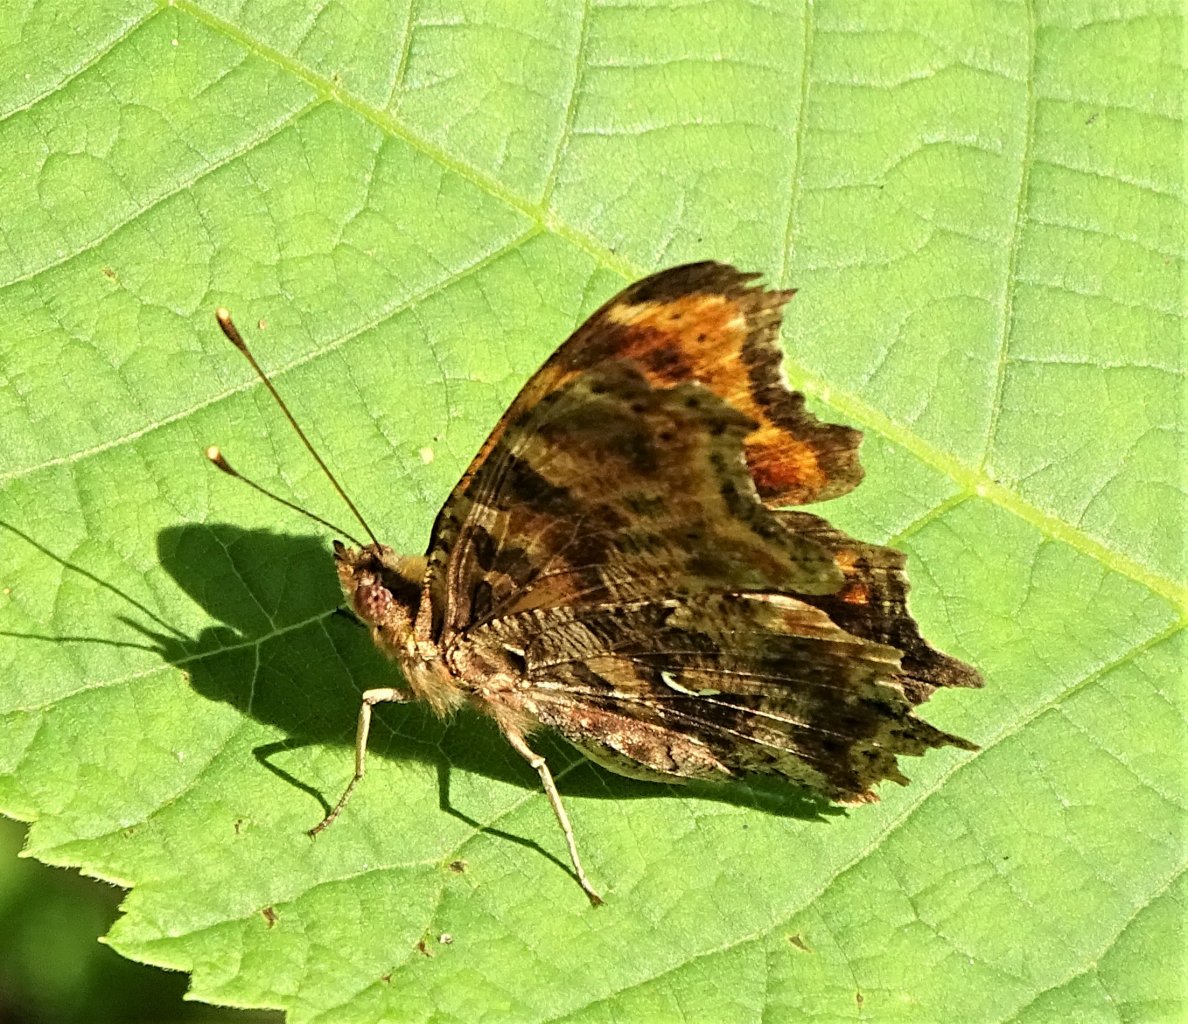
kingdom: Animalia
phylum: Arthropoda
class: Insecta
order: Lepidoptera
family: Nymphalidae
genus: Polygonia
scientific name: Polygonia comma
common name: Eastern Comma
